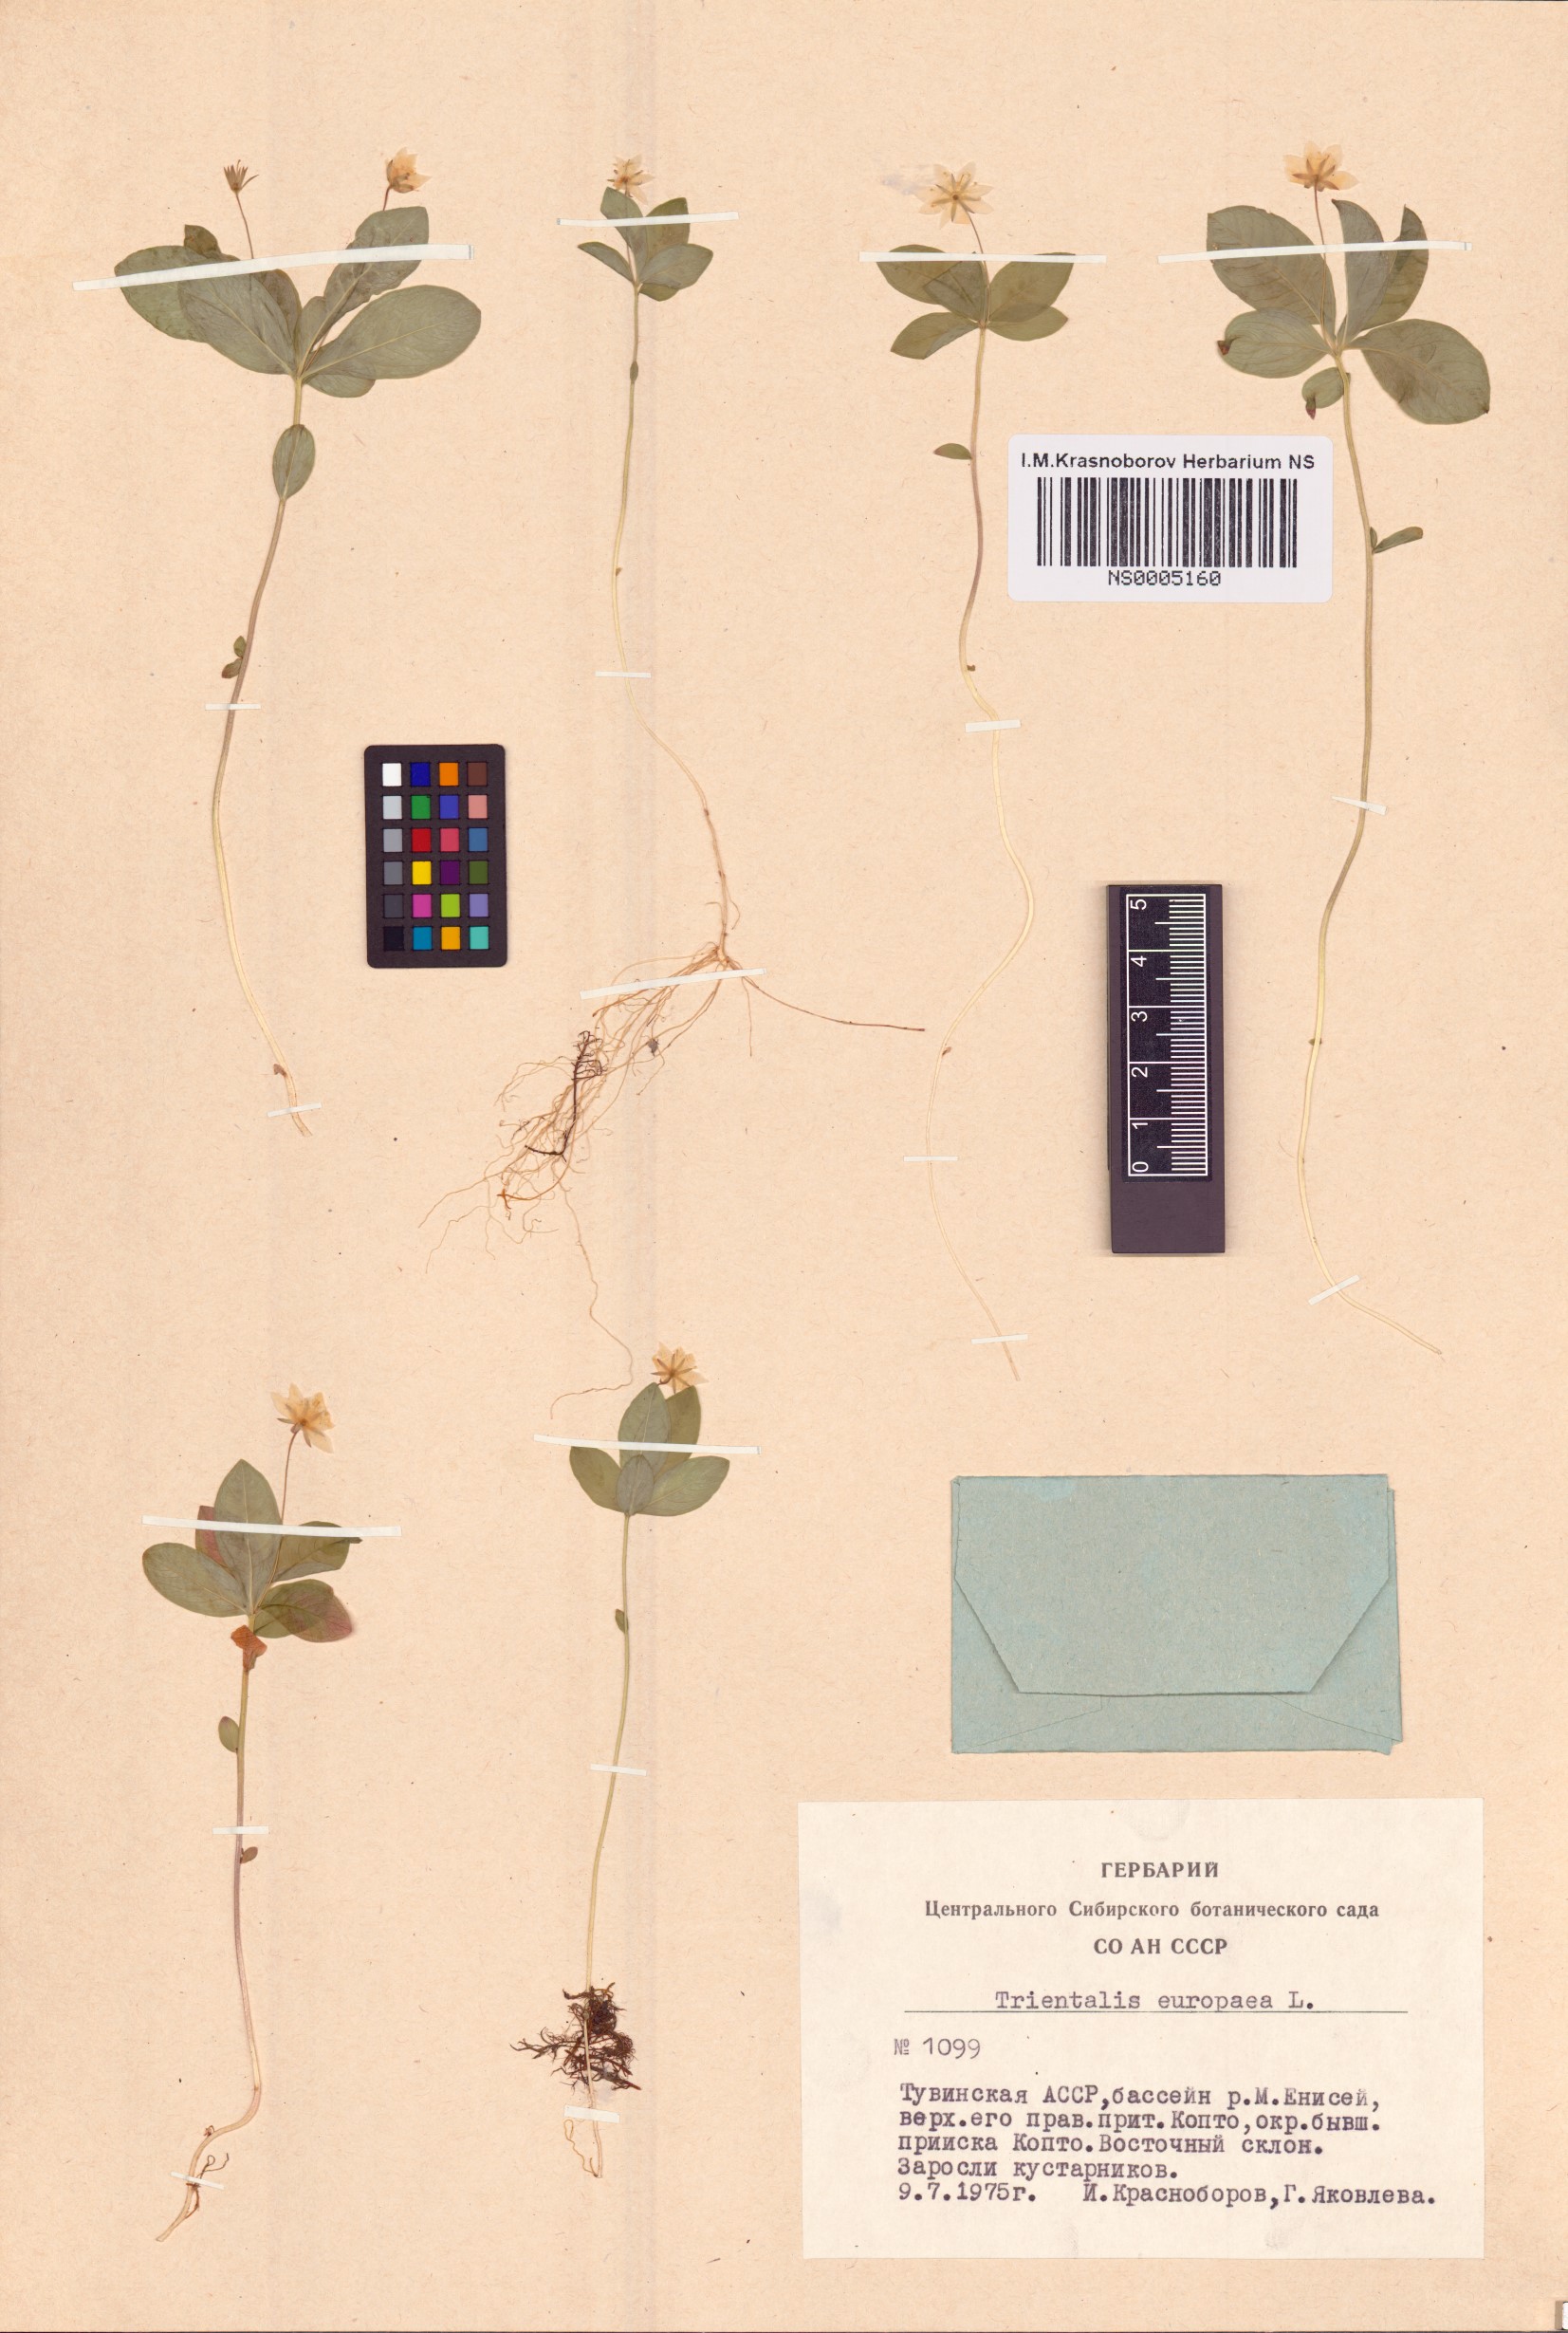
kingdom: Plantae
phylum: Tracheophyta
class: Magnoliopsida
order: Ericales
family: Primulaceae
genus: Lysimachia
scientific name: Lysimachia europaea
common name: Arctic starflower
